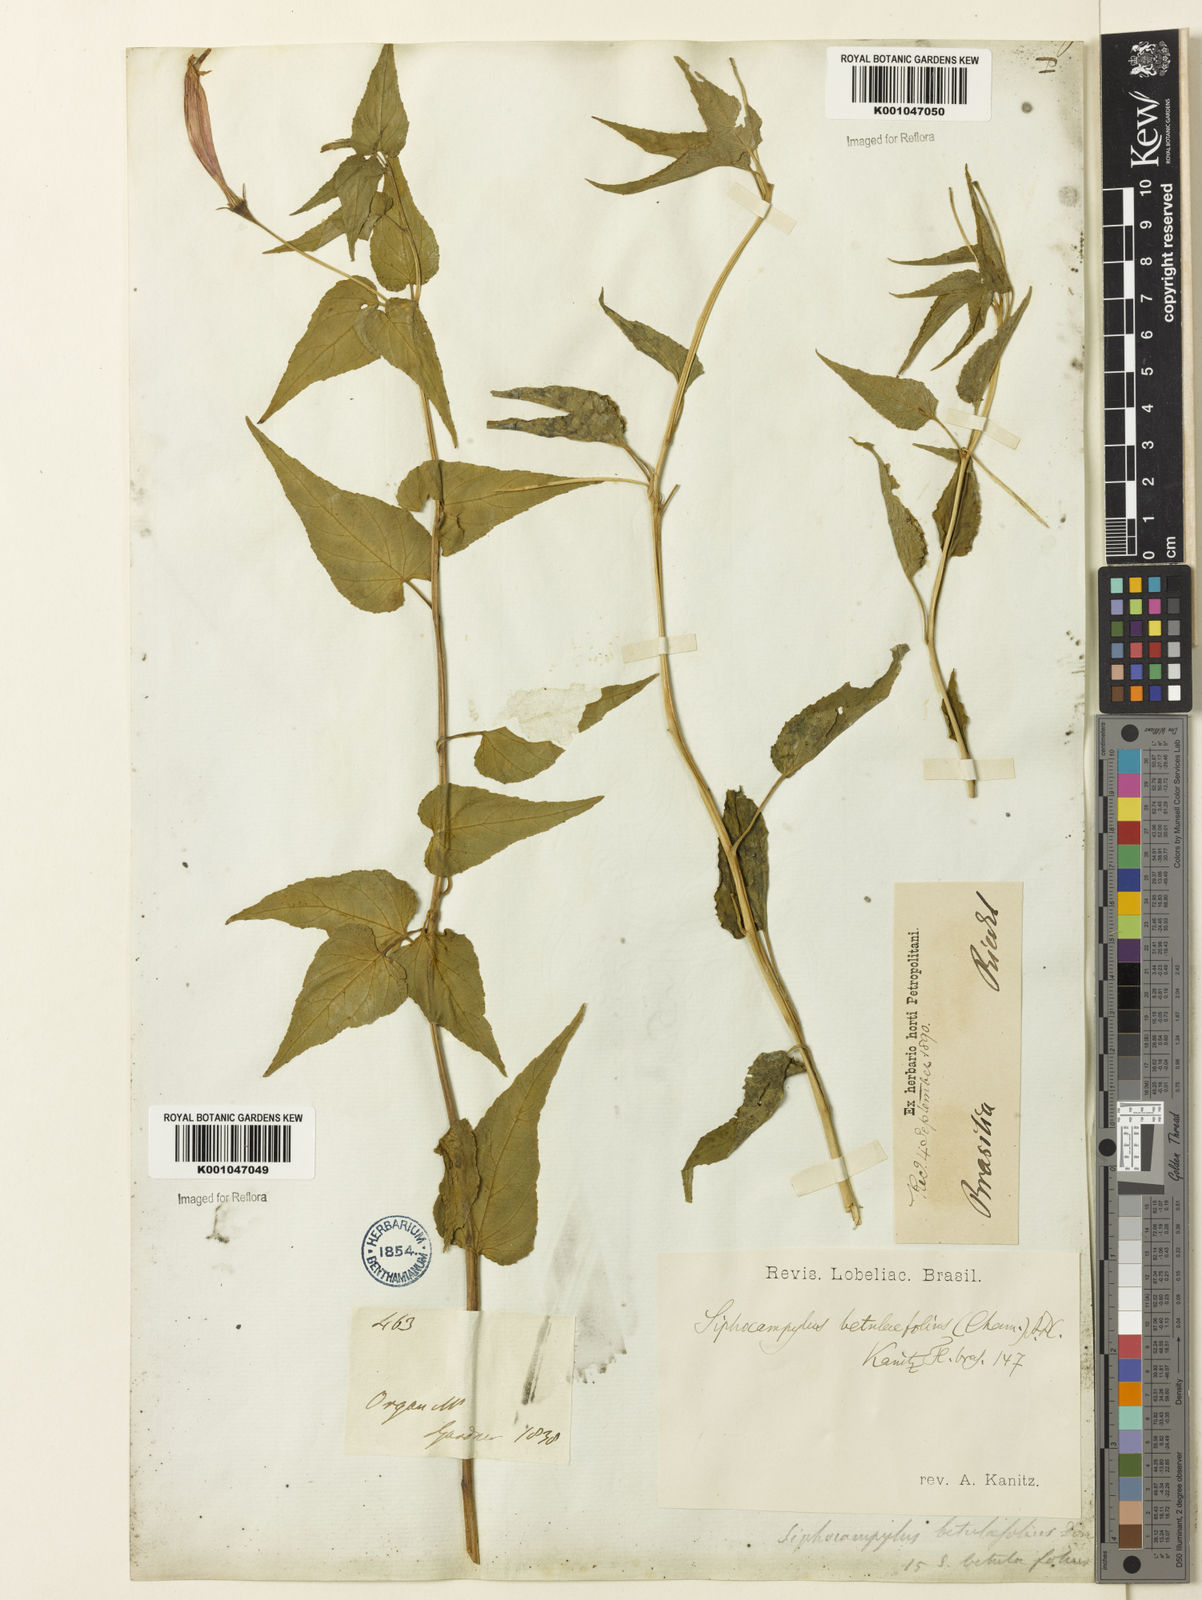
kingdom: Plantae
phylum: Tracheophyta
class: Magnoliopsida
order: Asterales
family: Campanulaceae
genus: Siphocampylus
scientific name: Siphocampylus betulifolius
